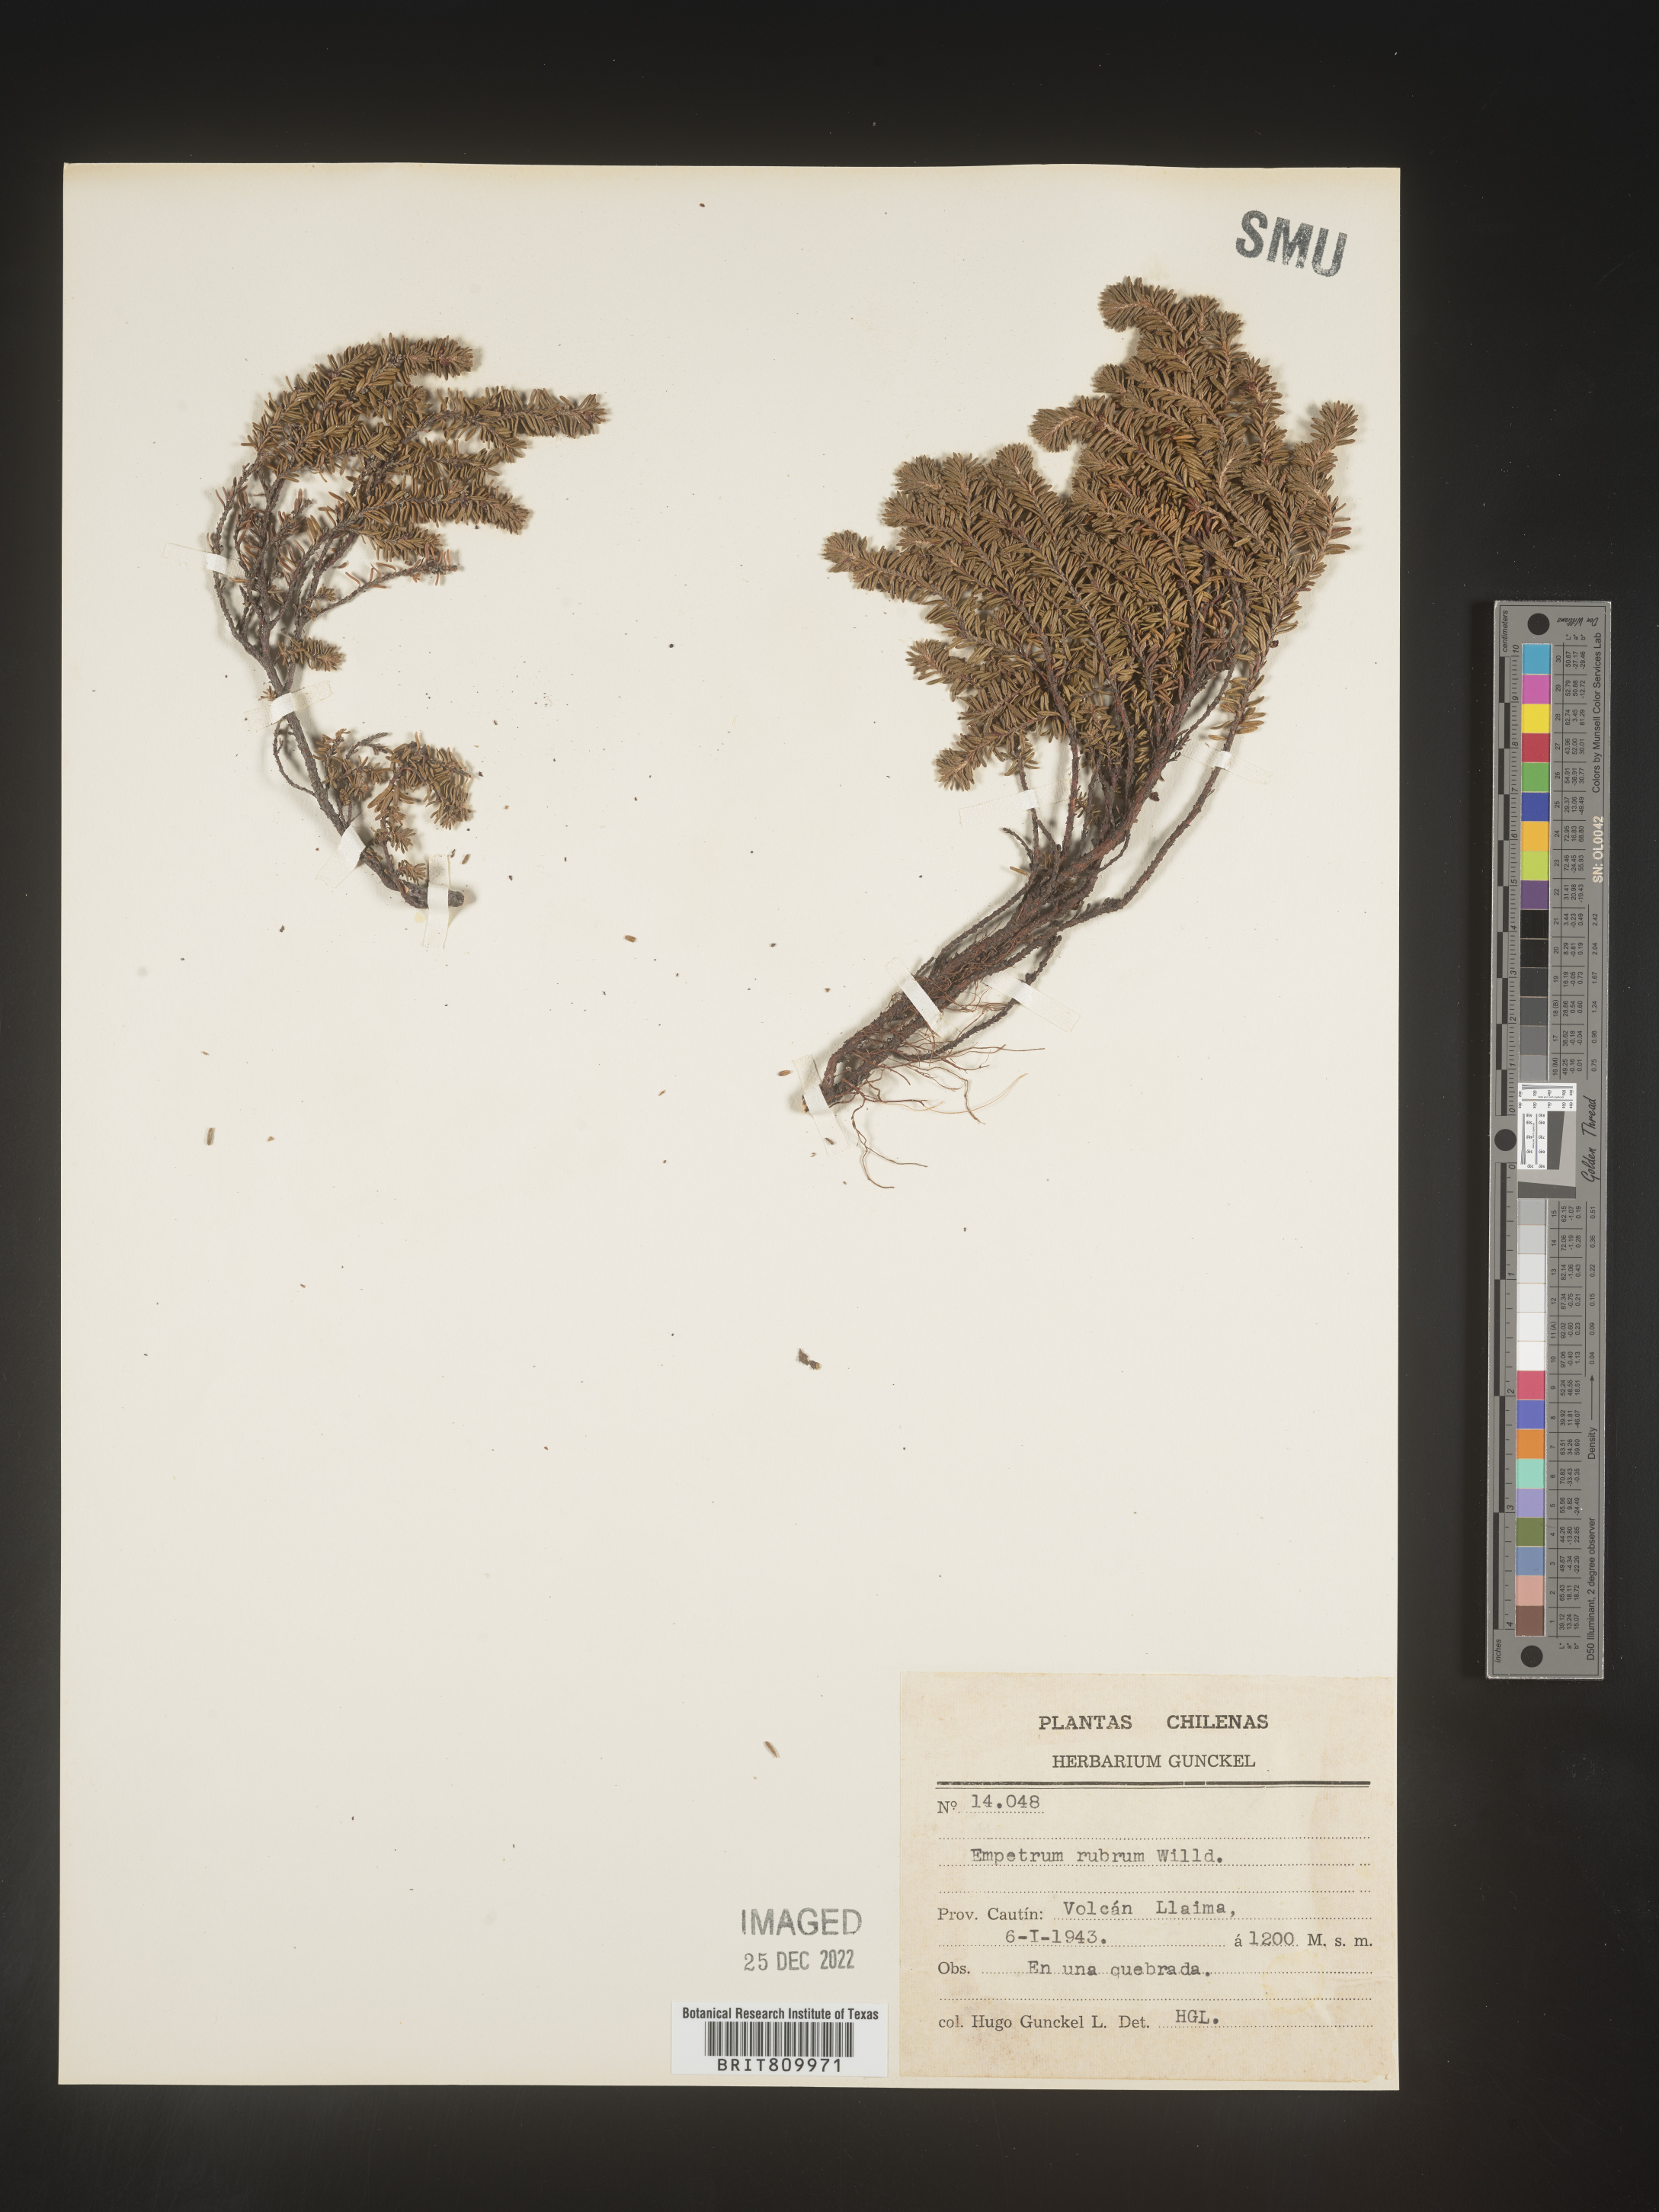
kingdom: Plantae
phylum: Tracheophyta
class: Magnoliopsida
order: Ericales
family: Ericaceae
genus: Empetrum
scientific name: Empetrum
